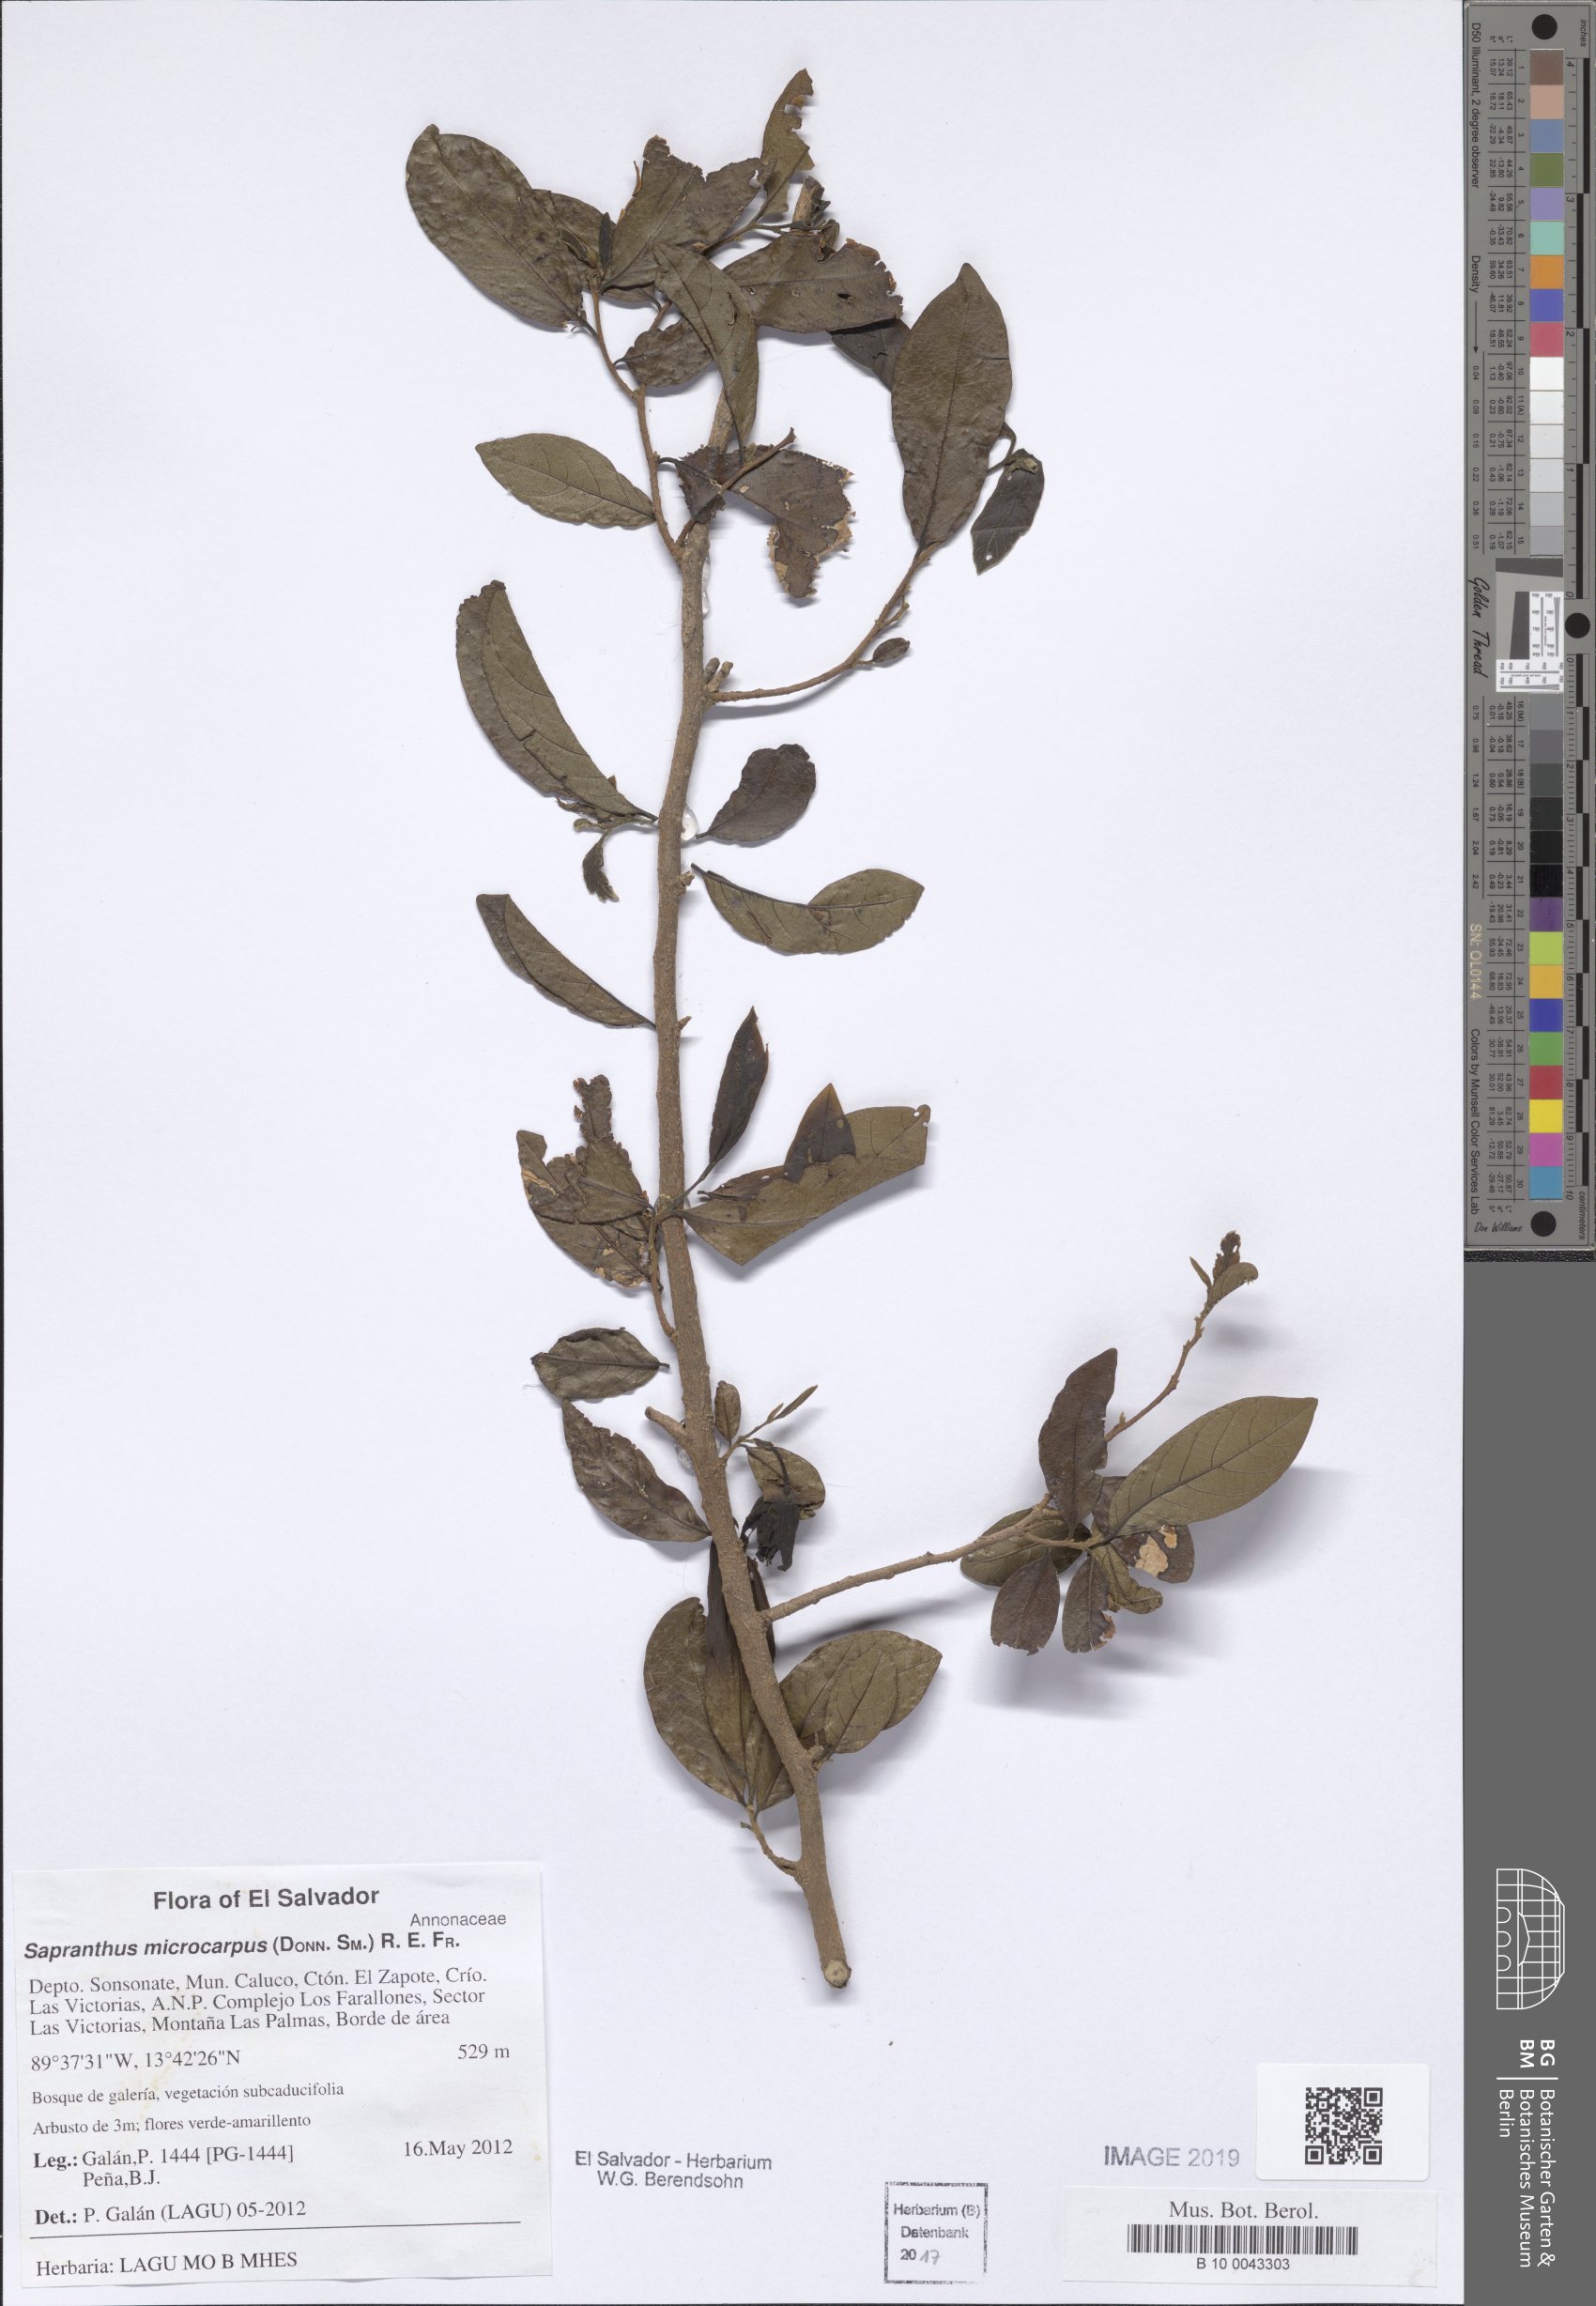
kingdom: Plantae
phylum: Tracheophyta
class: Magnoliopsida
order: Magnoliales
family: Annonaceae
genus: Sapranthus
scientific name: Sapranthus microcarpus
